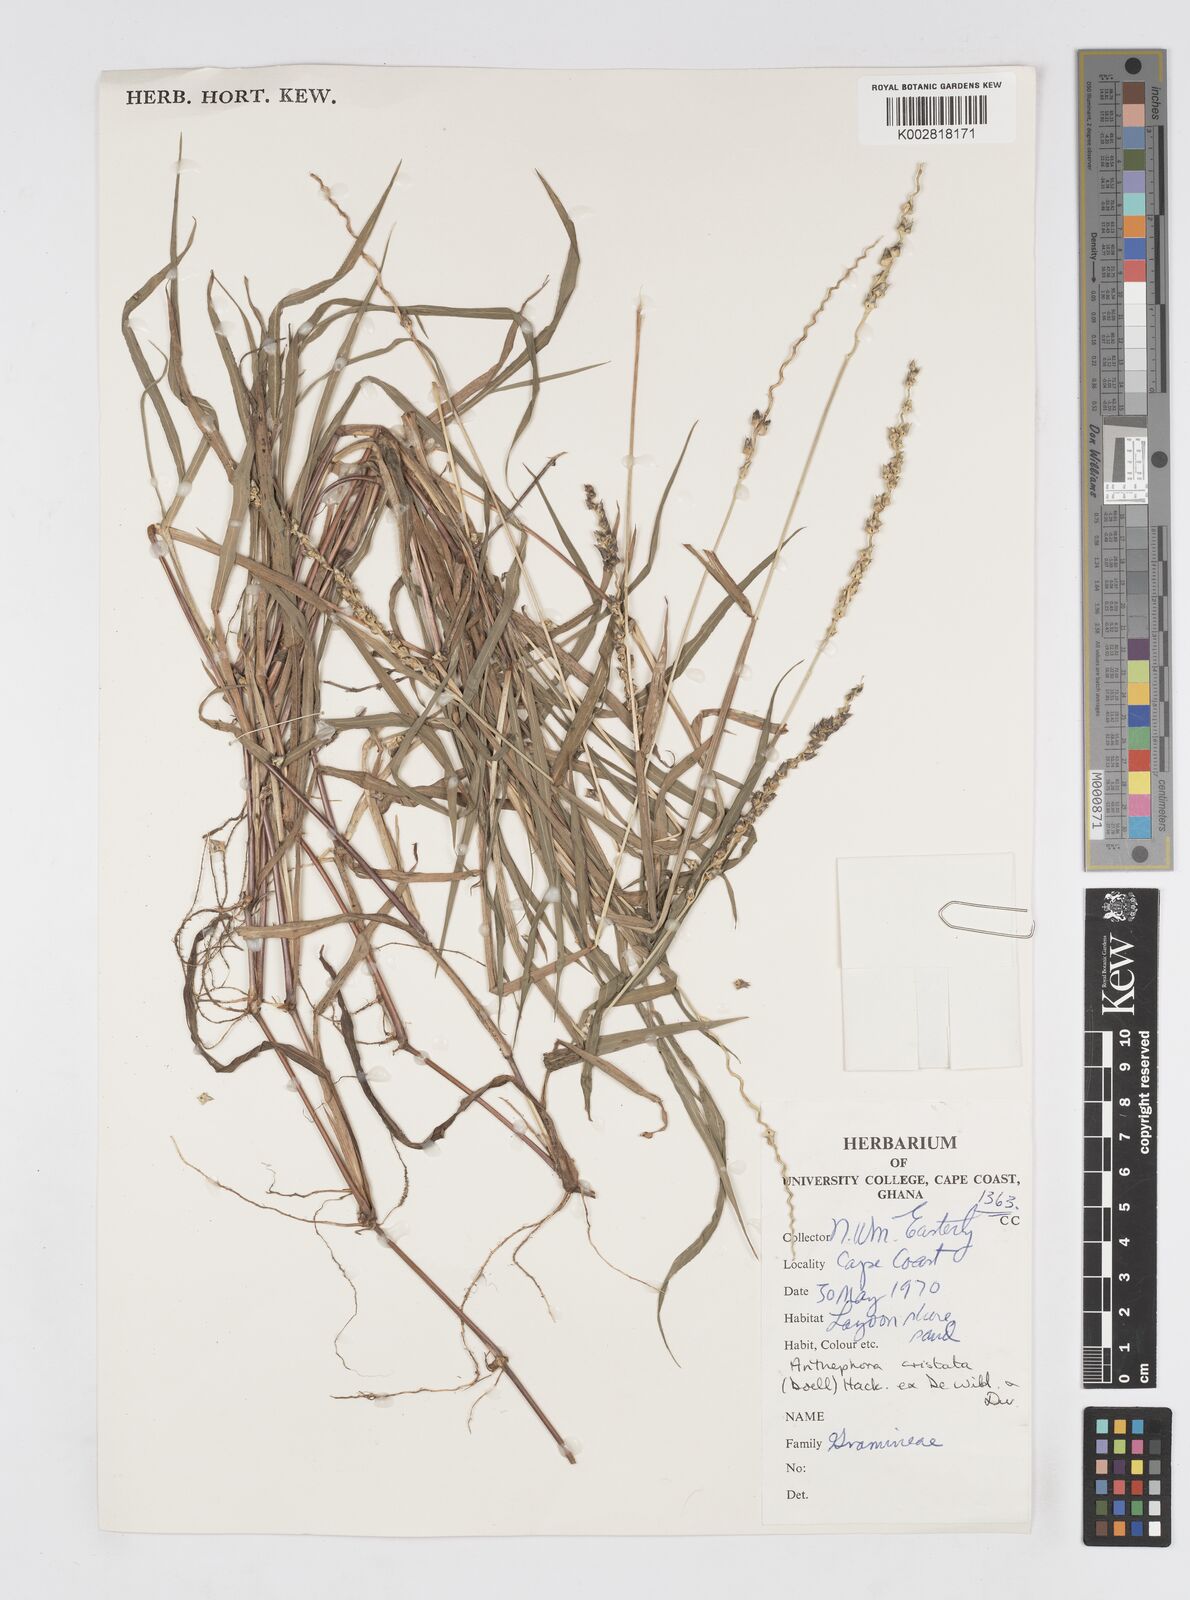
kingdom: Plantae
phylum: Tracheophyta
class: Liliopsida
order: Poales
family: Poaceae
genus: Anthephora
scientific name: Anthephora cristata
